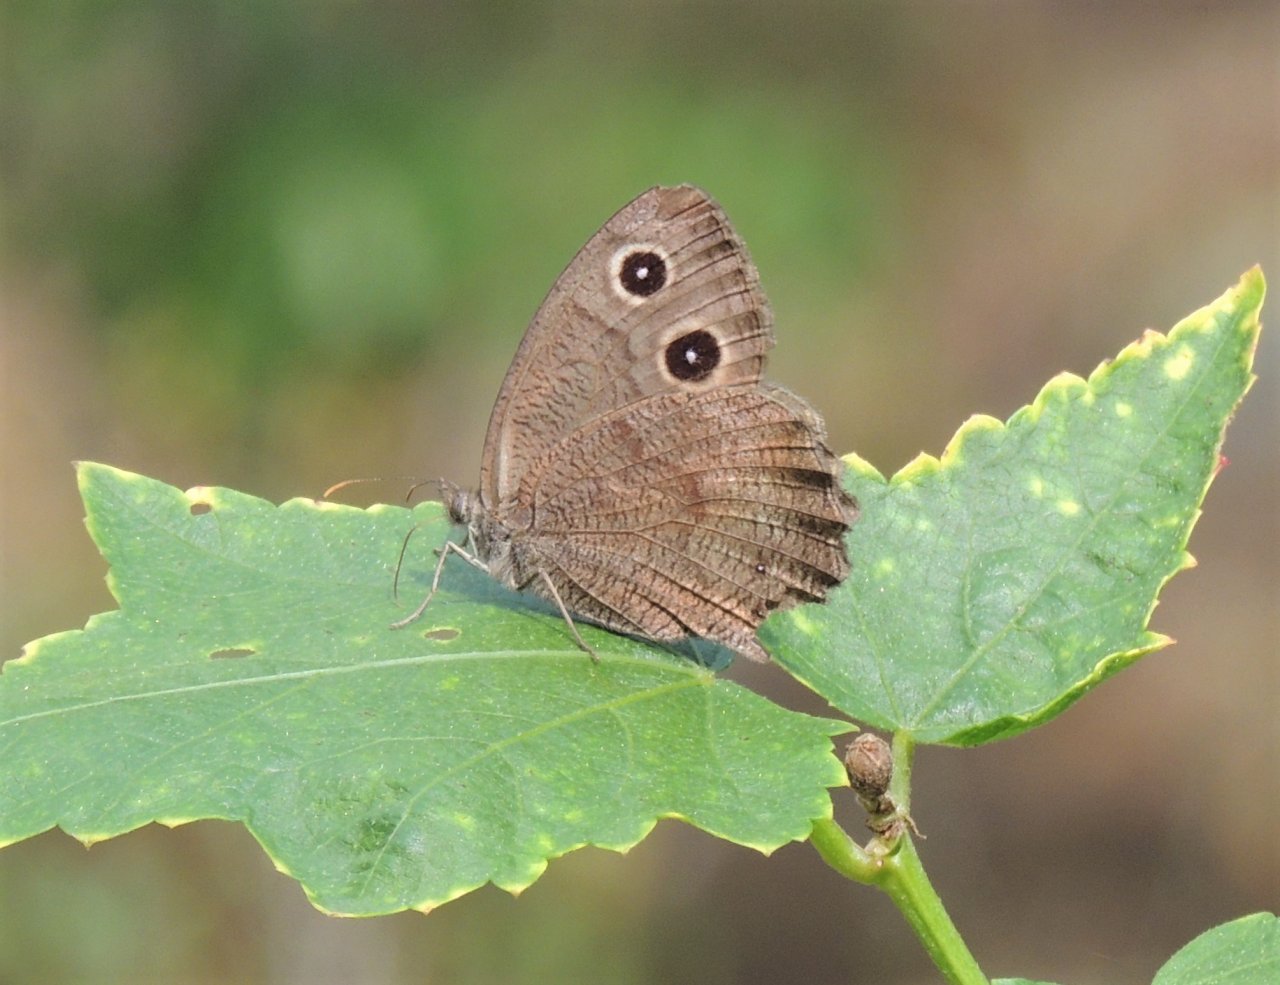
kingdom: Animalia
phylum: Arthropoda
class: Insecta
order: Lepidoptera
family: Nymphalidae
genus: Cercyonis
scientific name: Cercyonis pegala
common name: Common Wood-Nymph
